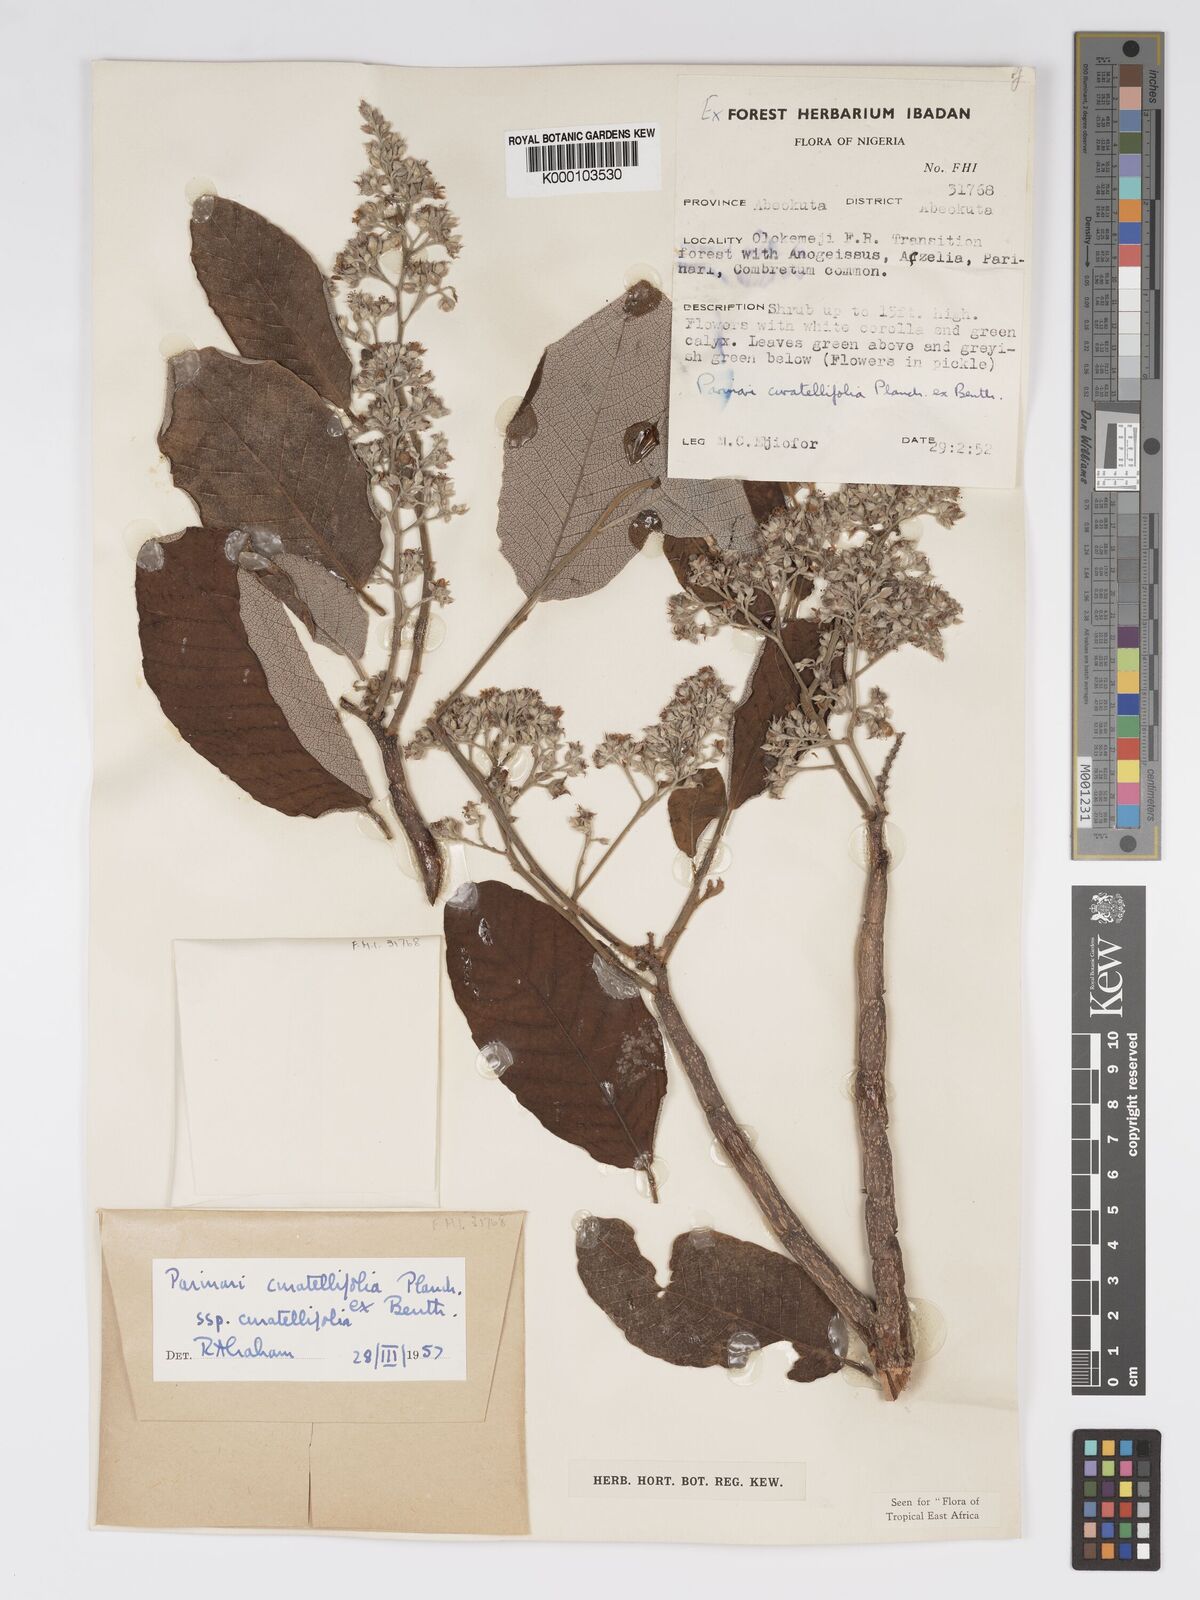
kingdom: Plantae
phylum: Tracheophyta
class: Magnoliopsida
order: Malpighiales
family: Chrysobalanaceae
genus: Parinari
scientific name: Parinari curatellifolia
